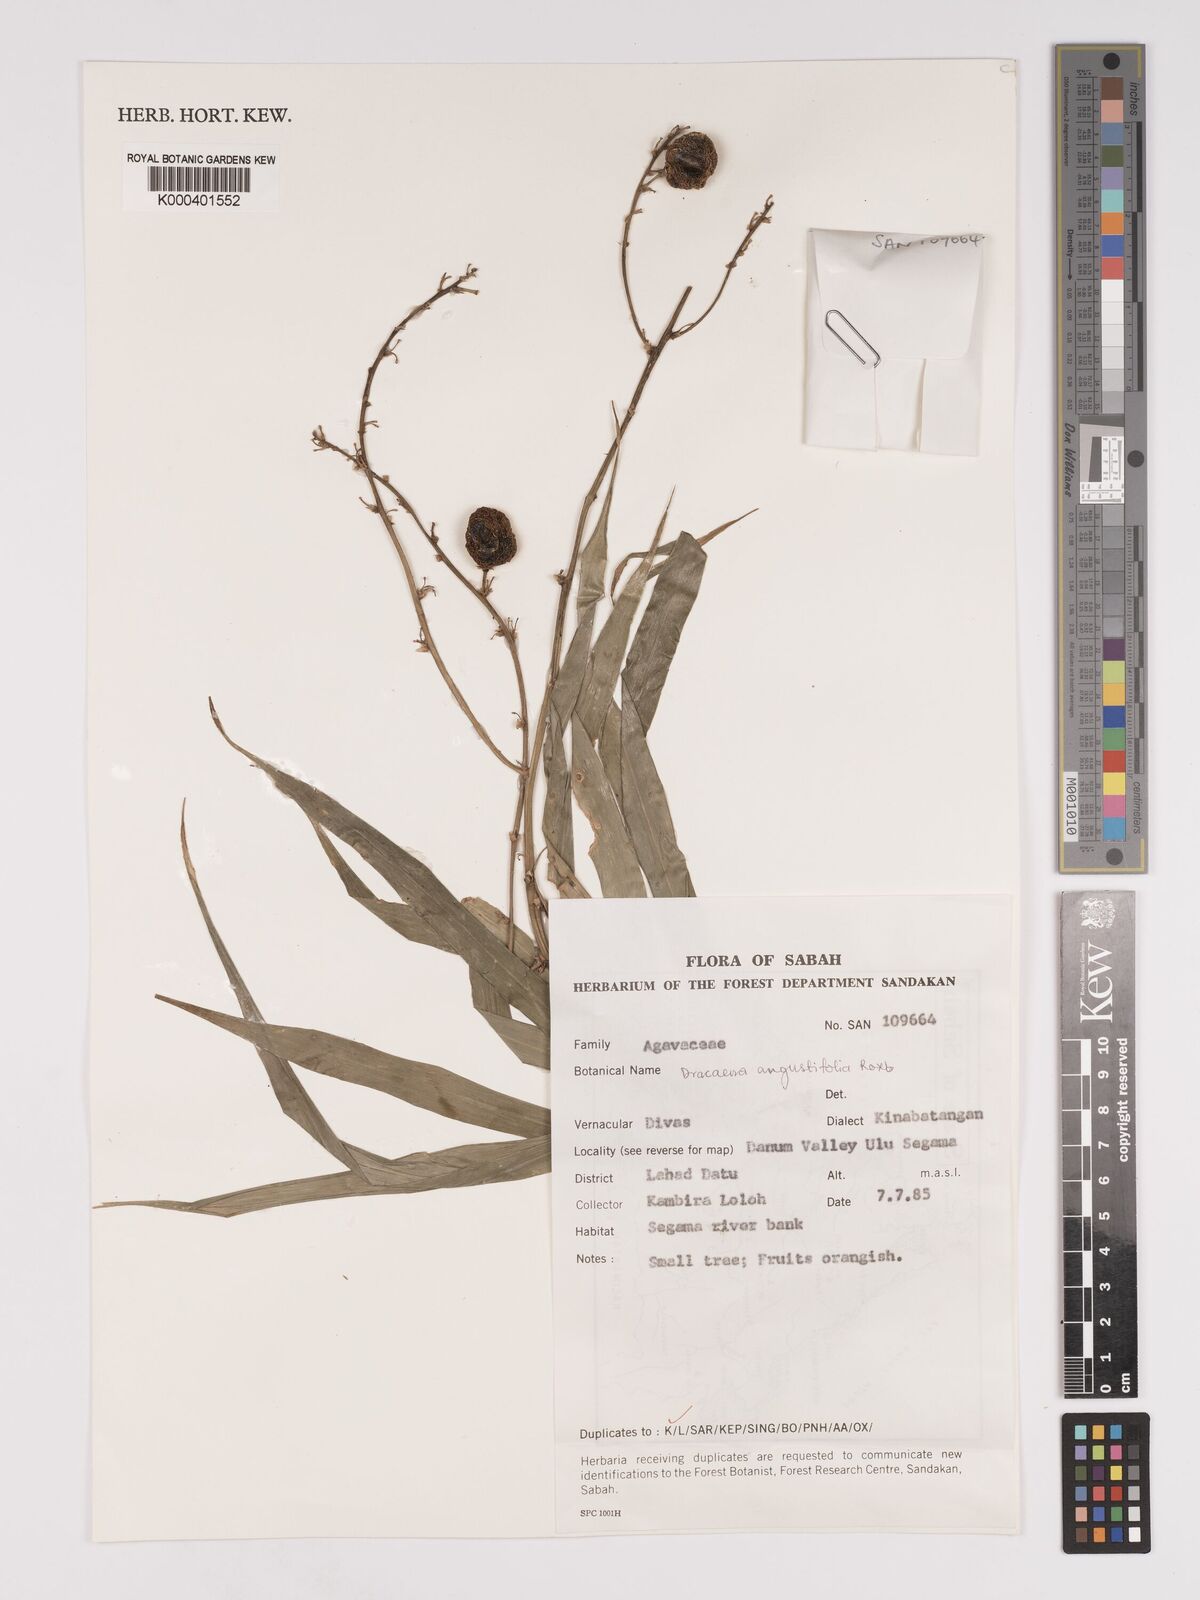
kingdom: Plantae
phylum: Tracheophyta
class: Liliopsida
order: Asparagales
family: Asparagaceae
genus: Dracaena
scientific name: Dracaena angustifolia
